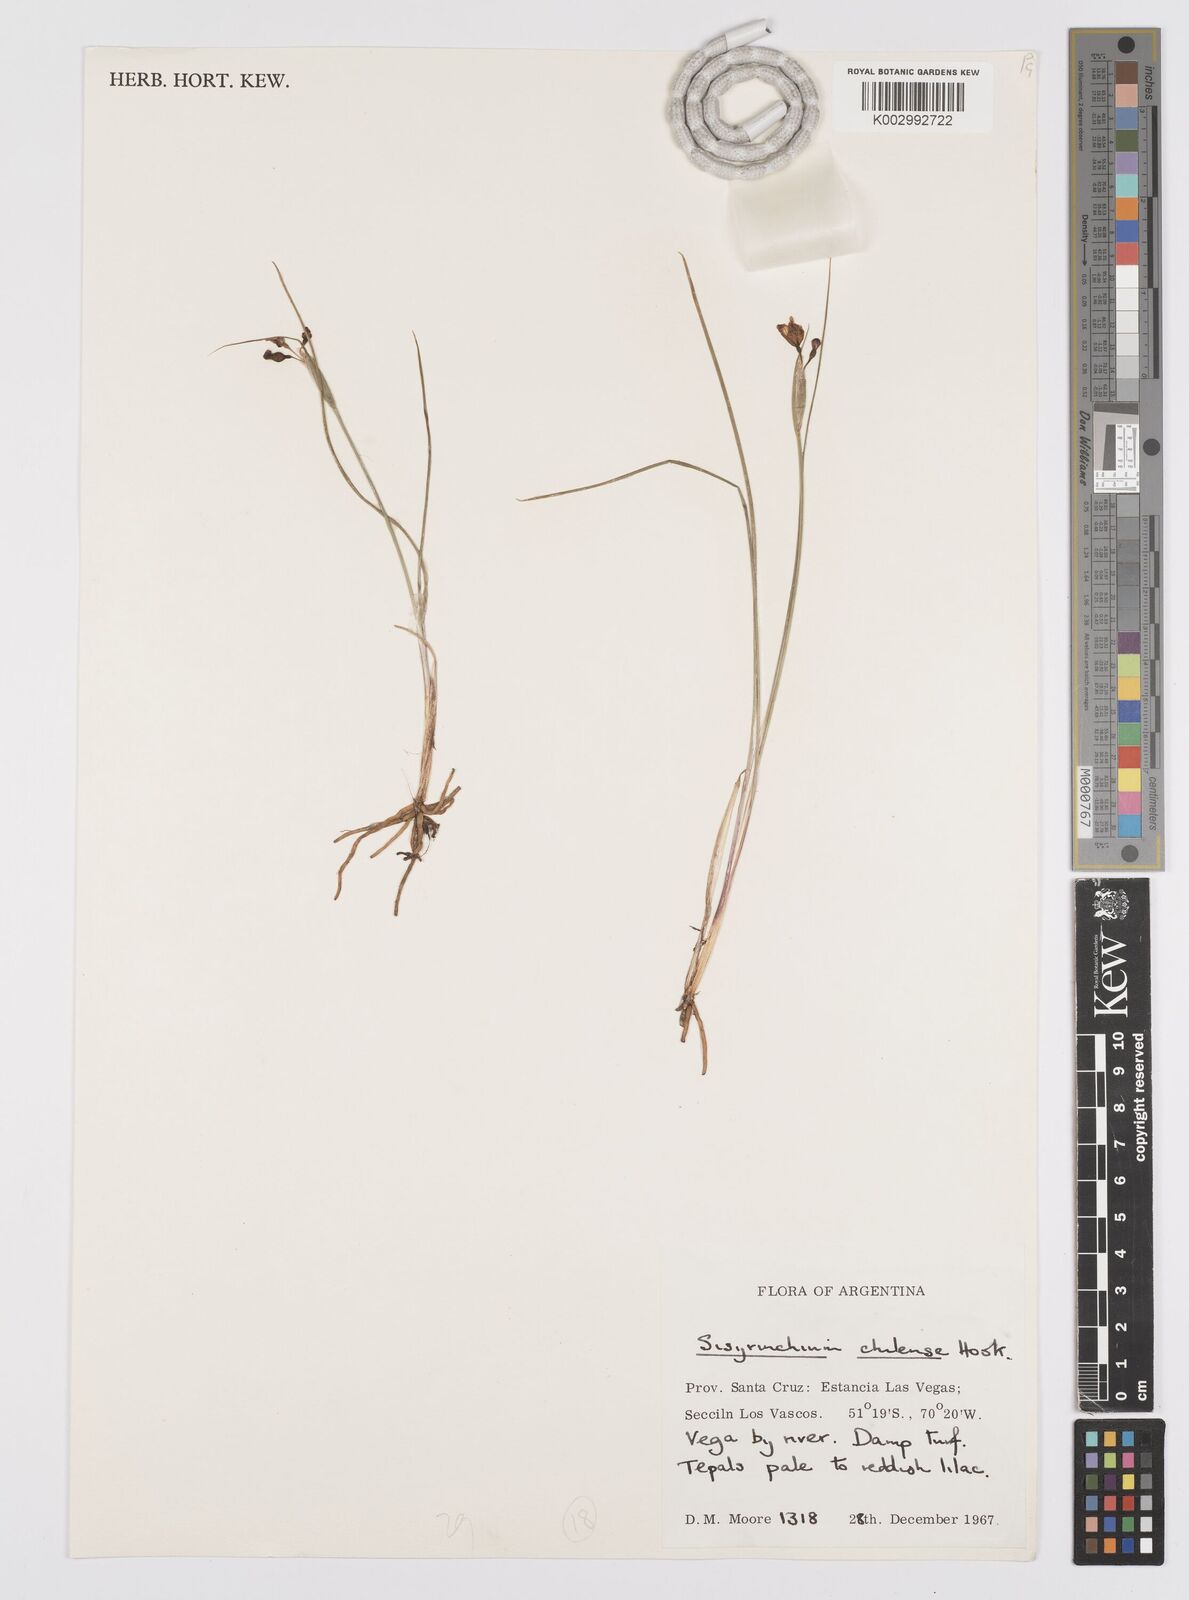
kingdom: Plantae
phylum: Tracheophyta
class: Liliopsida
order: Asparagales
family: Iridaceae
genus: Sisyrinchium
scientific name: Sisyrinchium chilense
